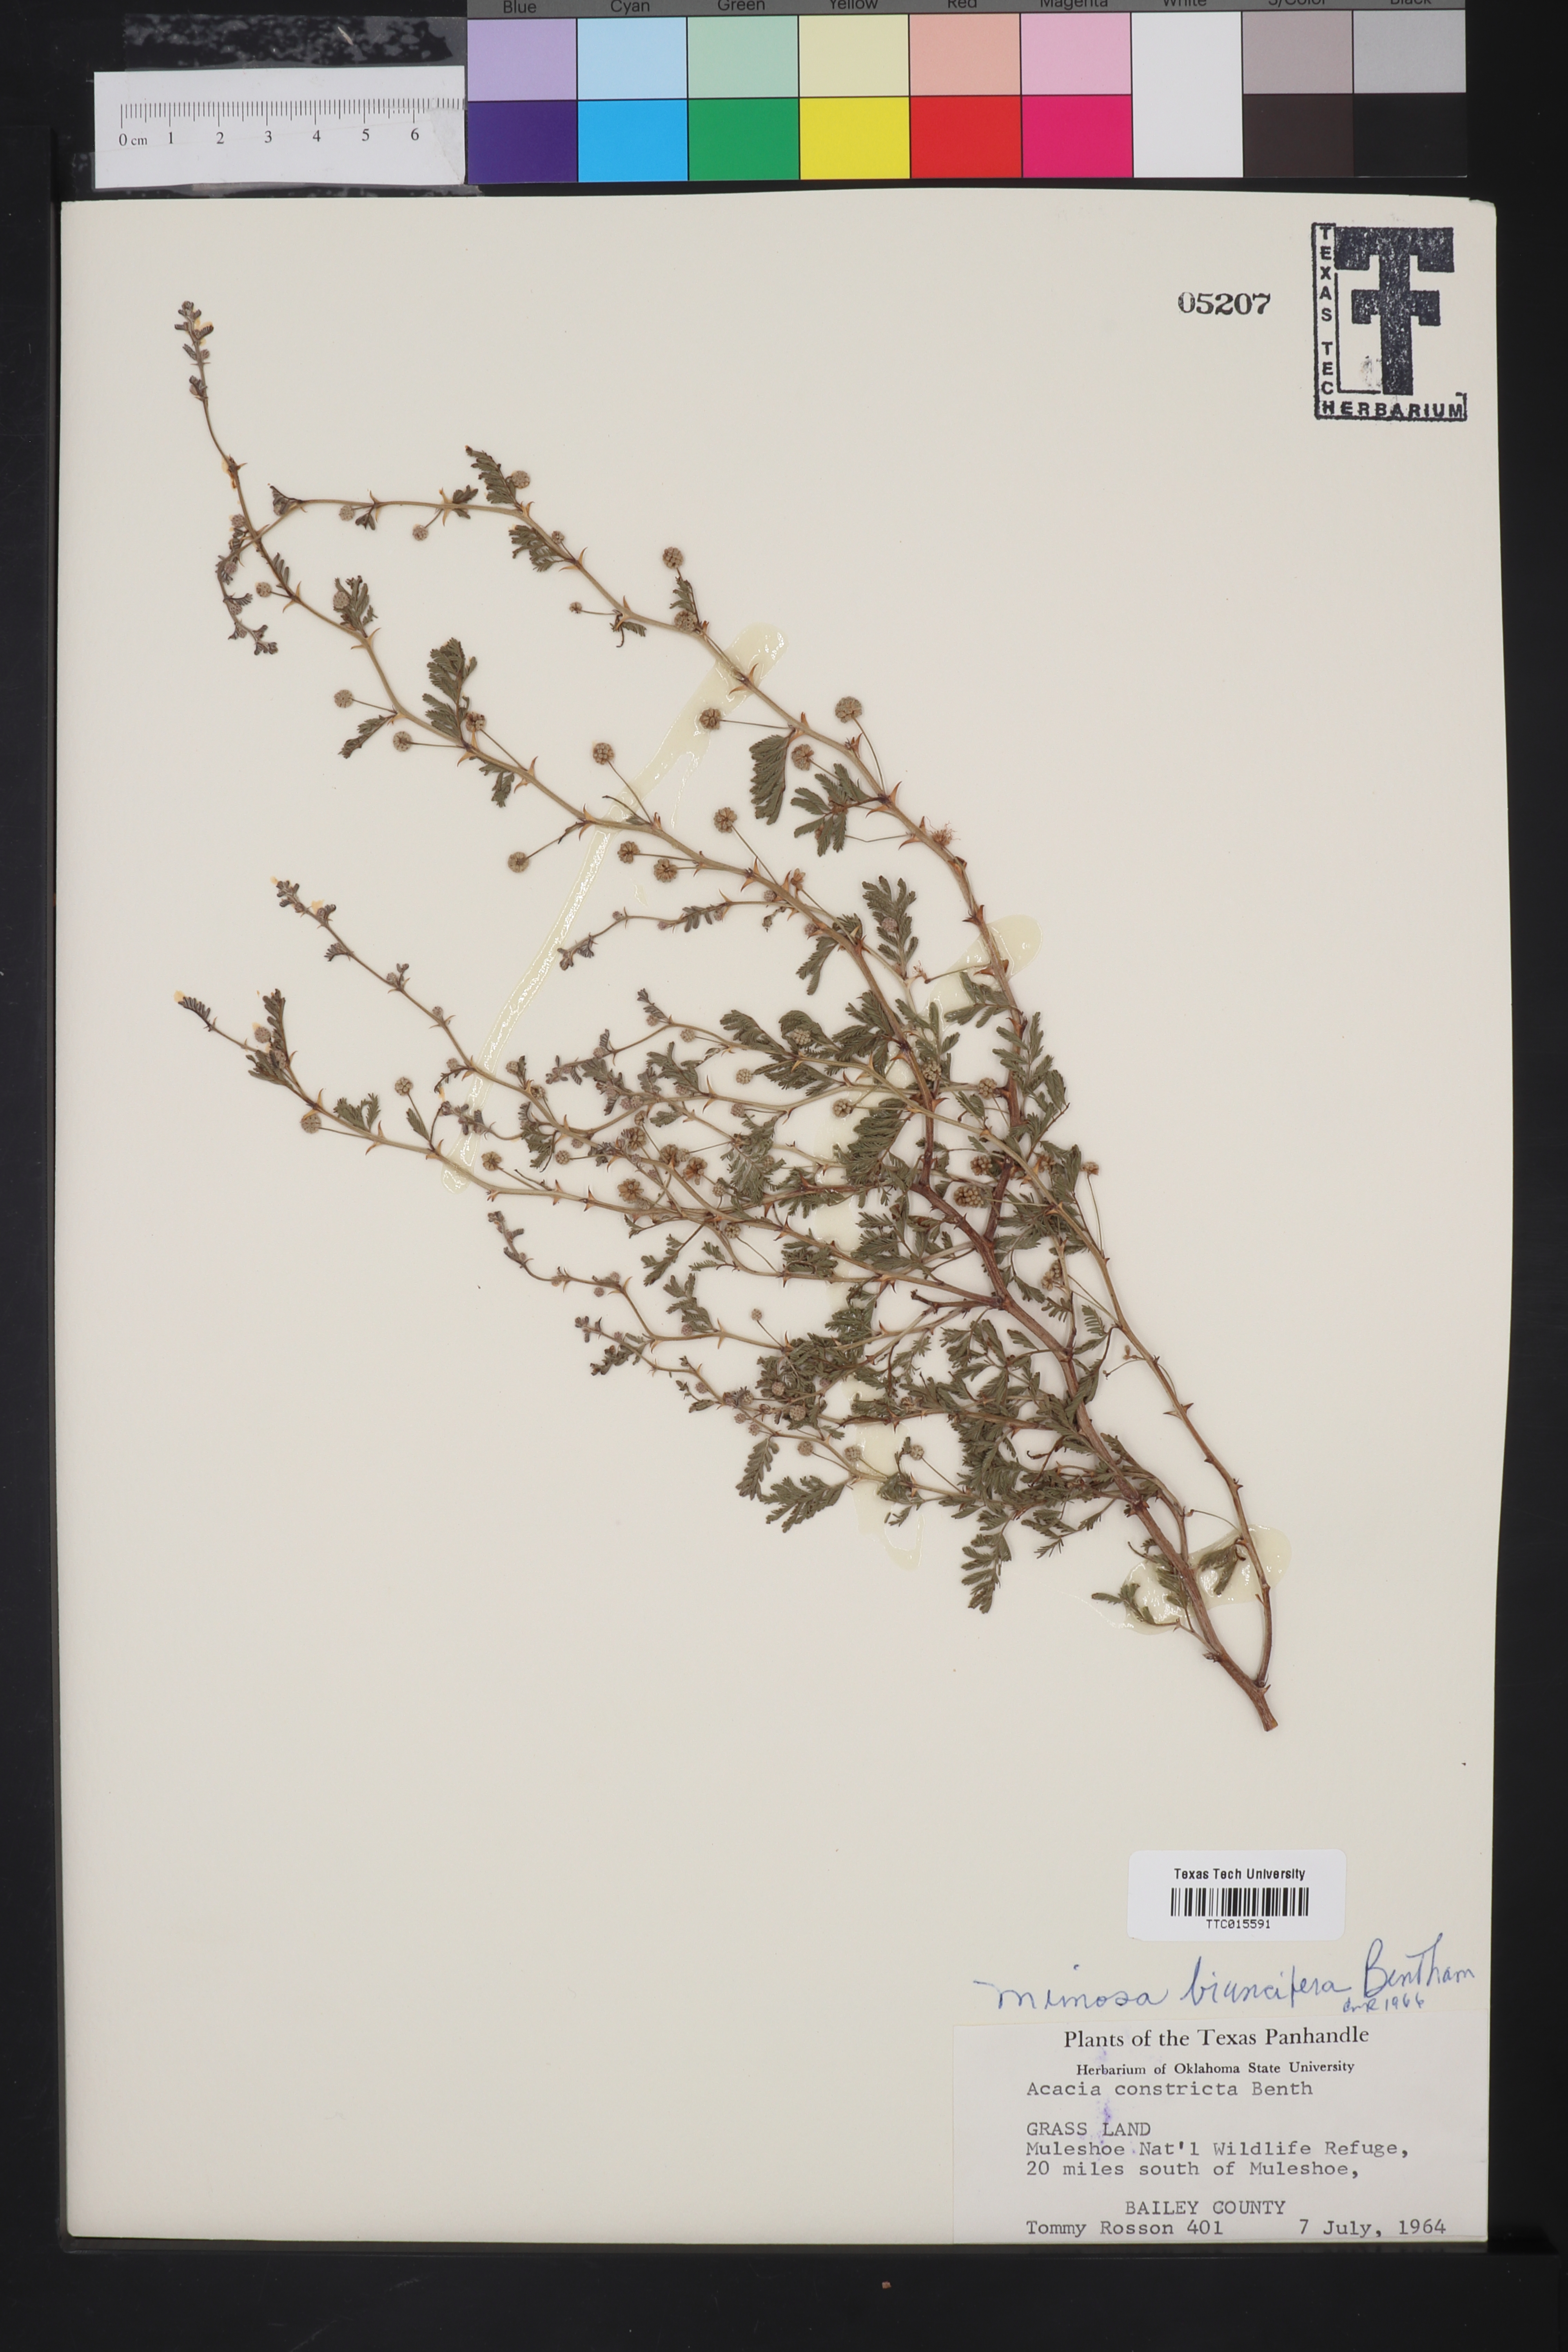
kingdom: Plantae
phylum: Tracheophyta
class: Magnoliopsida
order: Fabales
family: Fabaceae
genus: Mimosa
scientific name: Mimosa biuncifera
